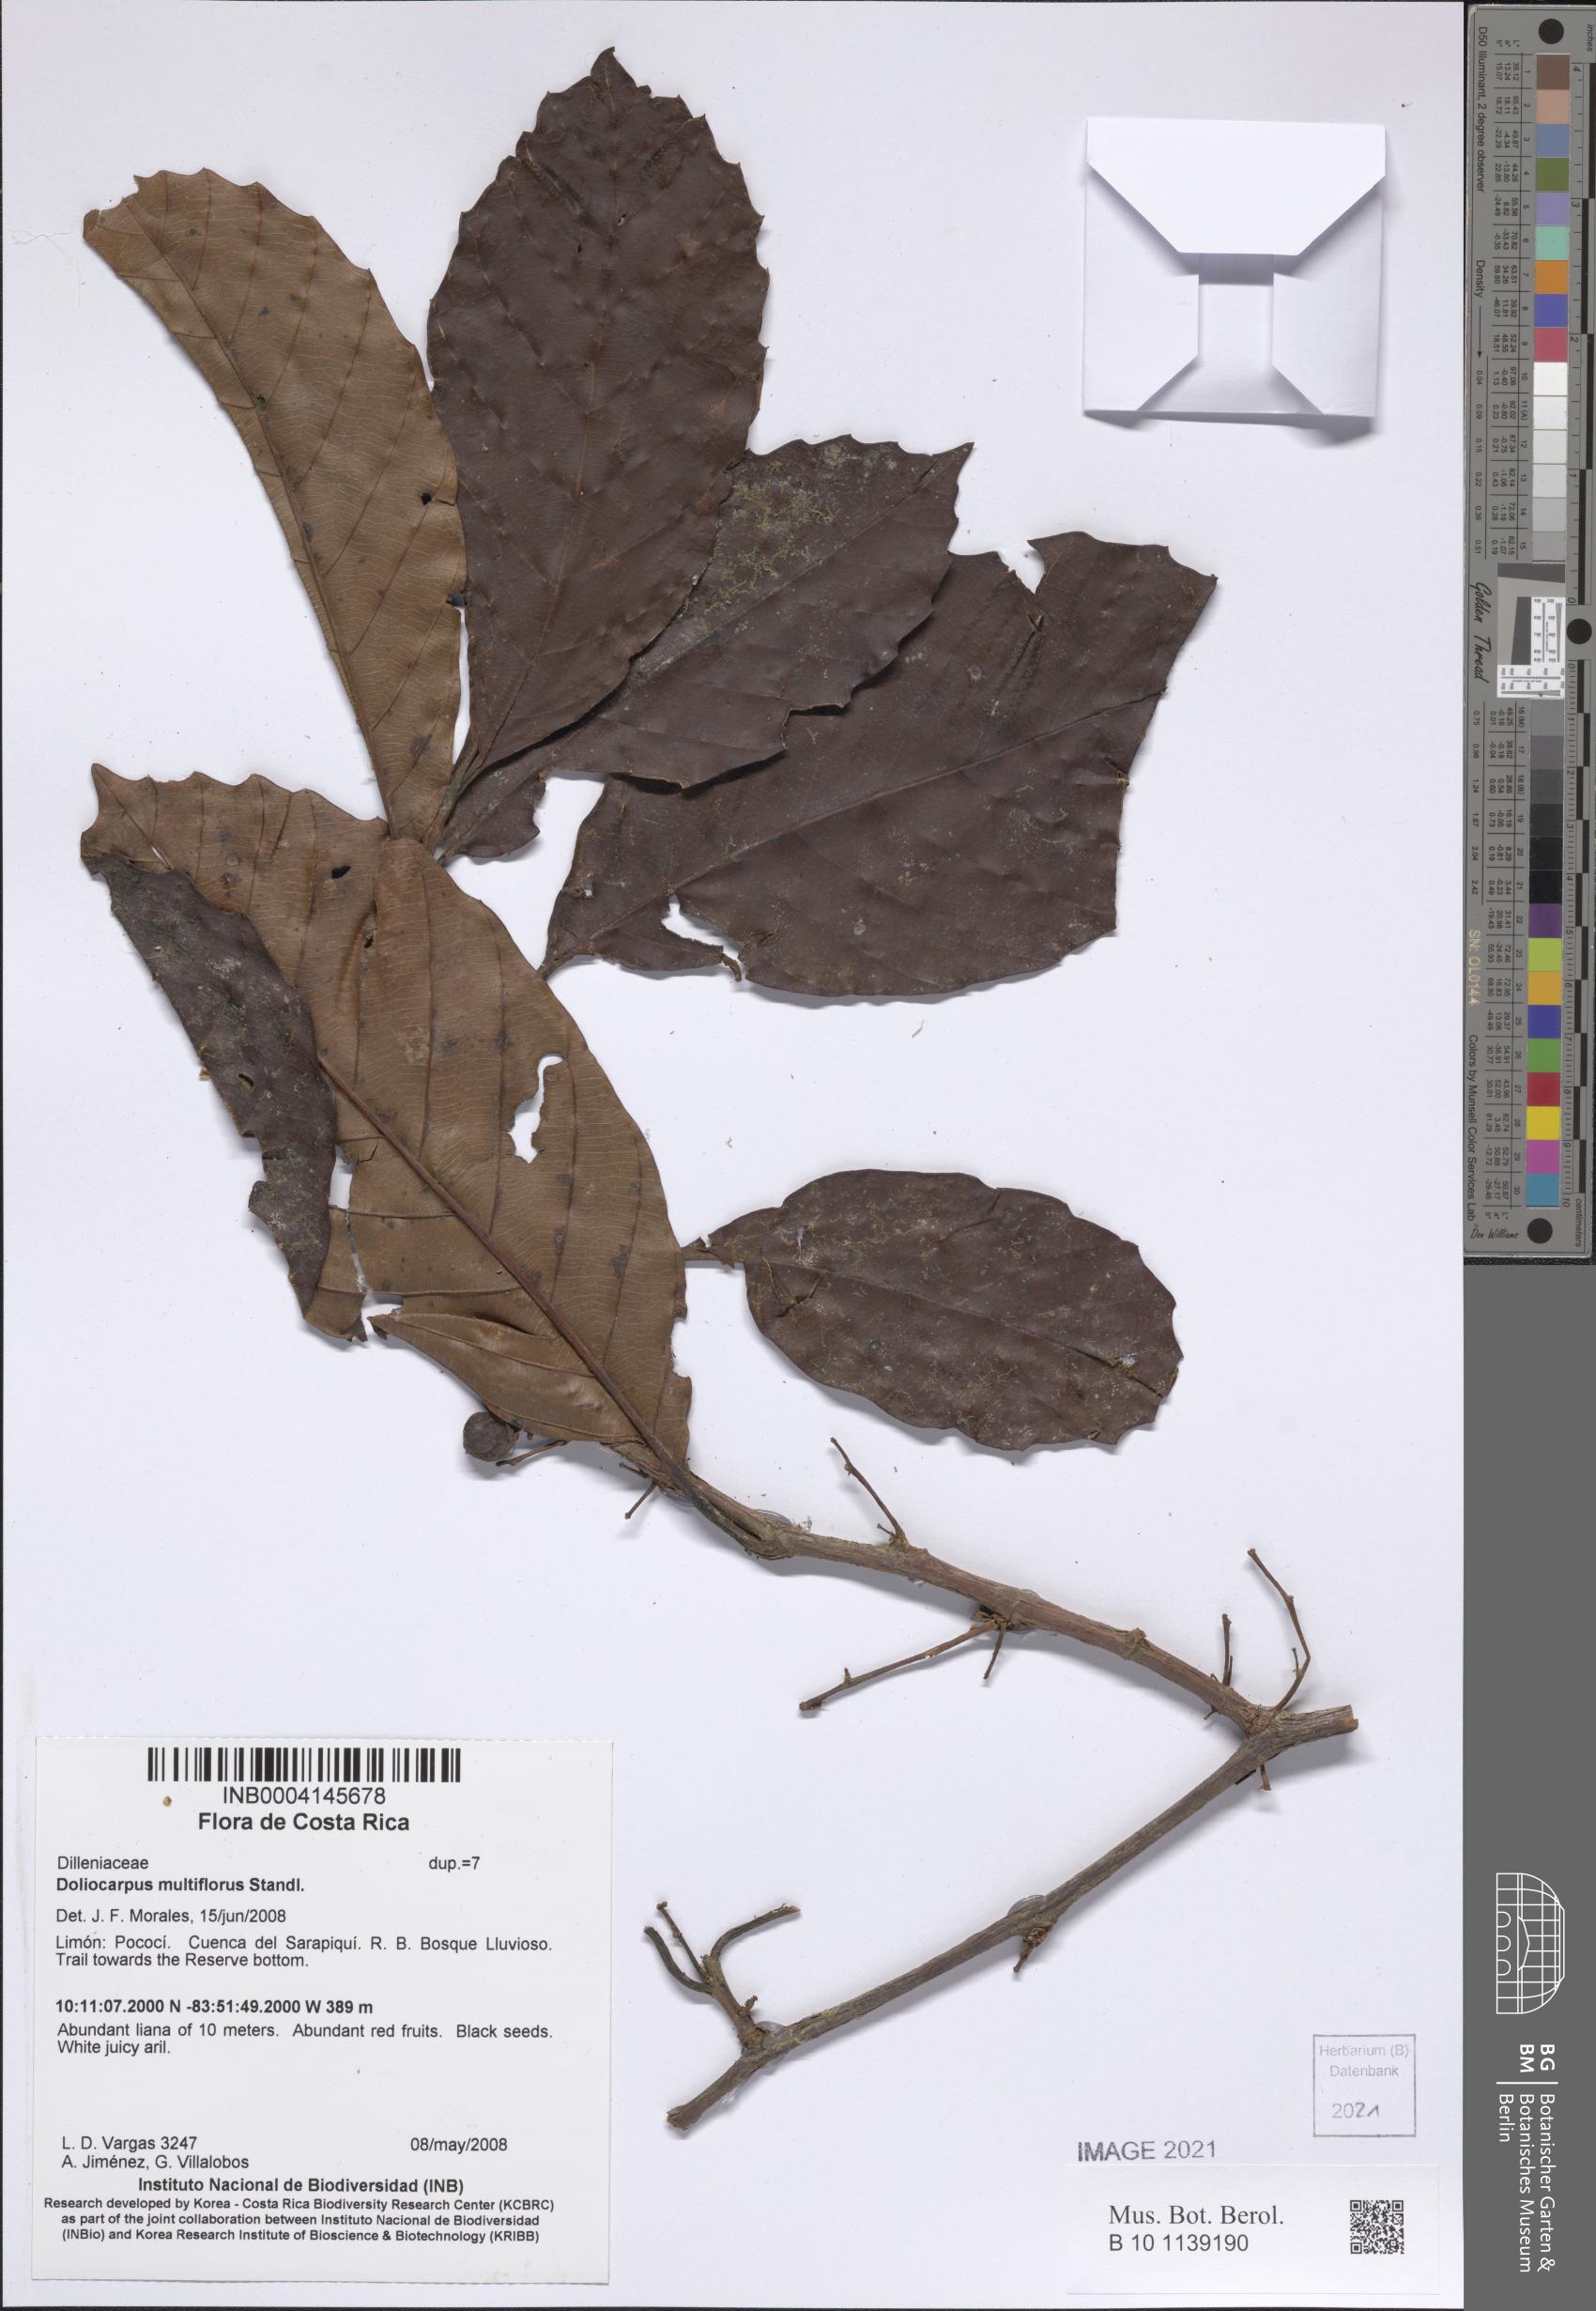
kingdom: Plantae
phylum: Tracheophyta
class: Magnoliopsida
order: Dilleniales
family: Dilleniaceae
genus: Doliocarpus
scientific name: Doliocarpus multiflorus
